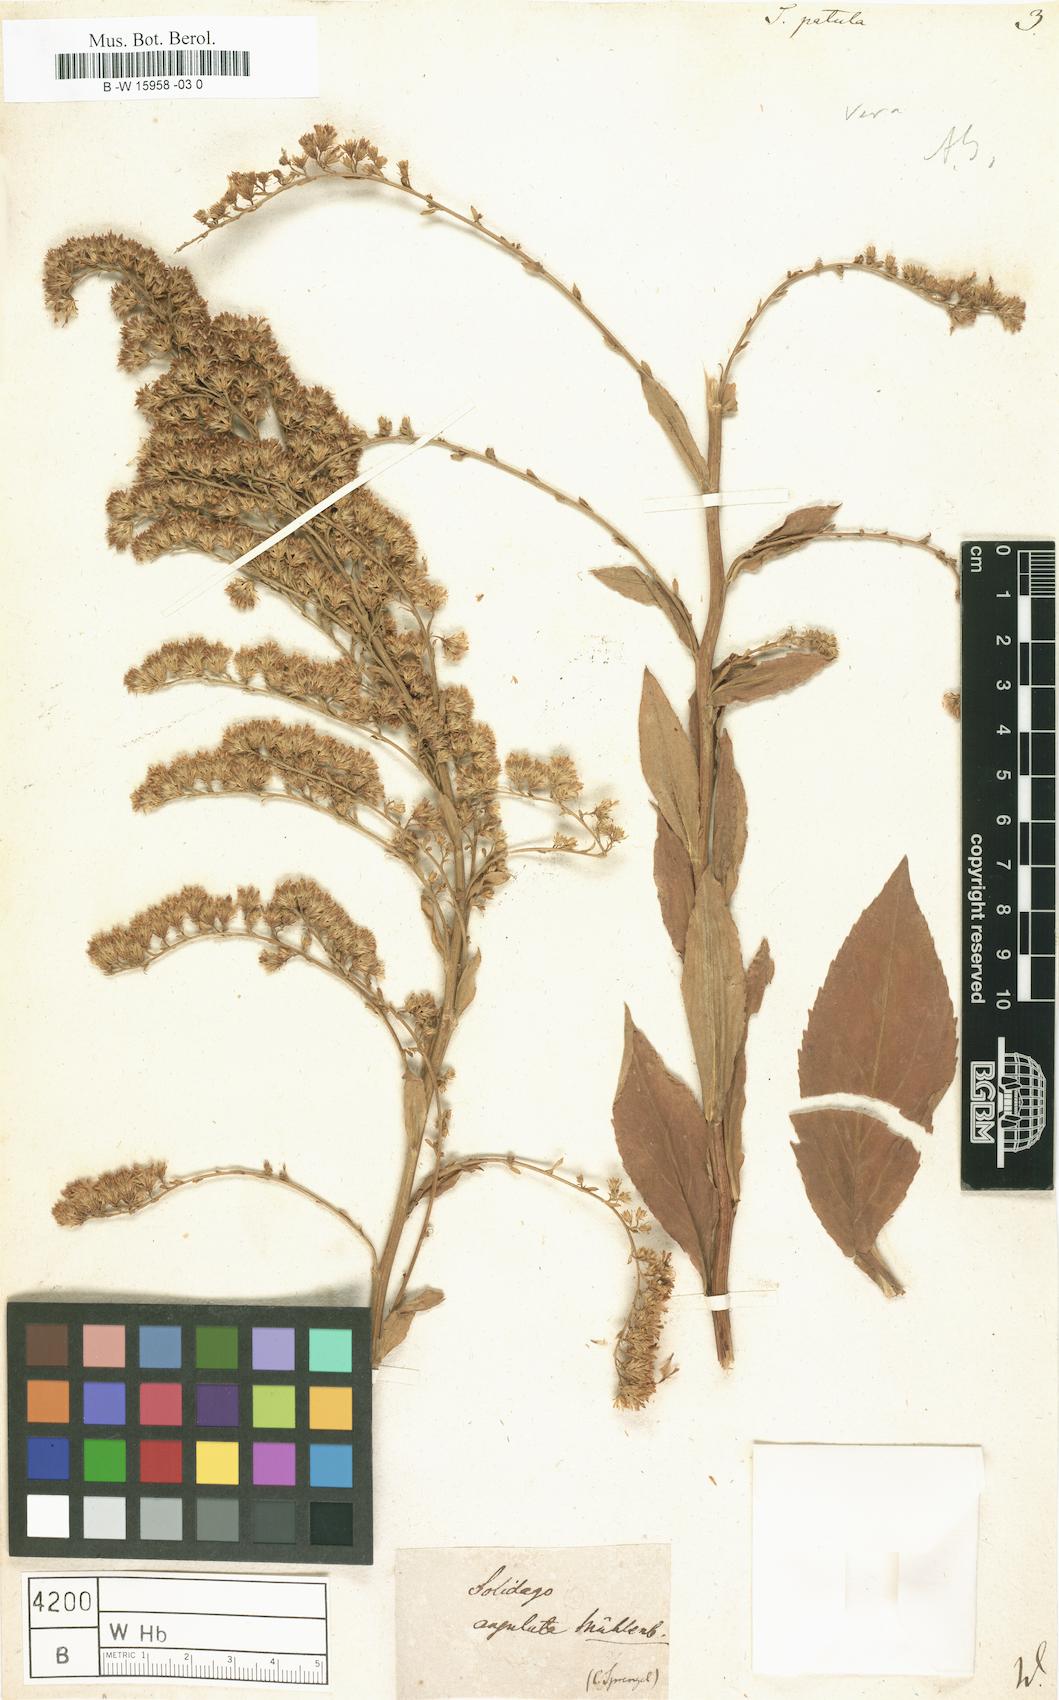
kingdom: Plantae
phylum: Tracheophyta
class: Magnoliopsida
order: Asterales
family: Asteraceae
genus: Solidago
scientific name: Solidago patula
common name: Rough-leaf goldenrod
